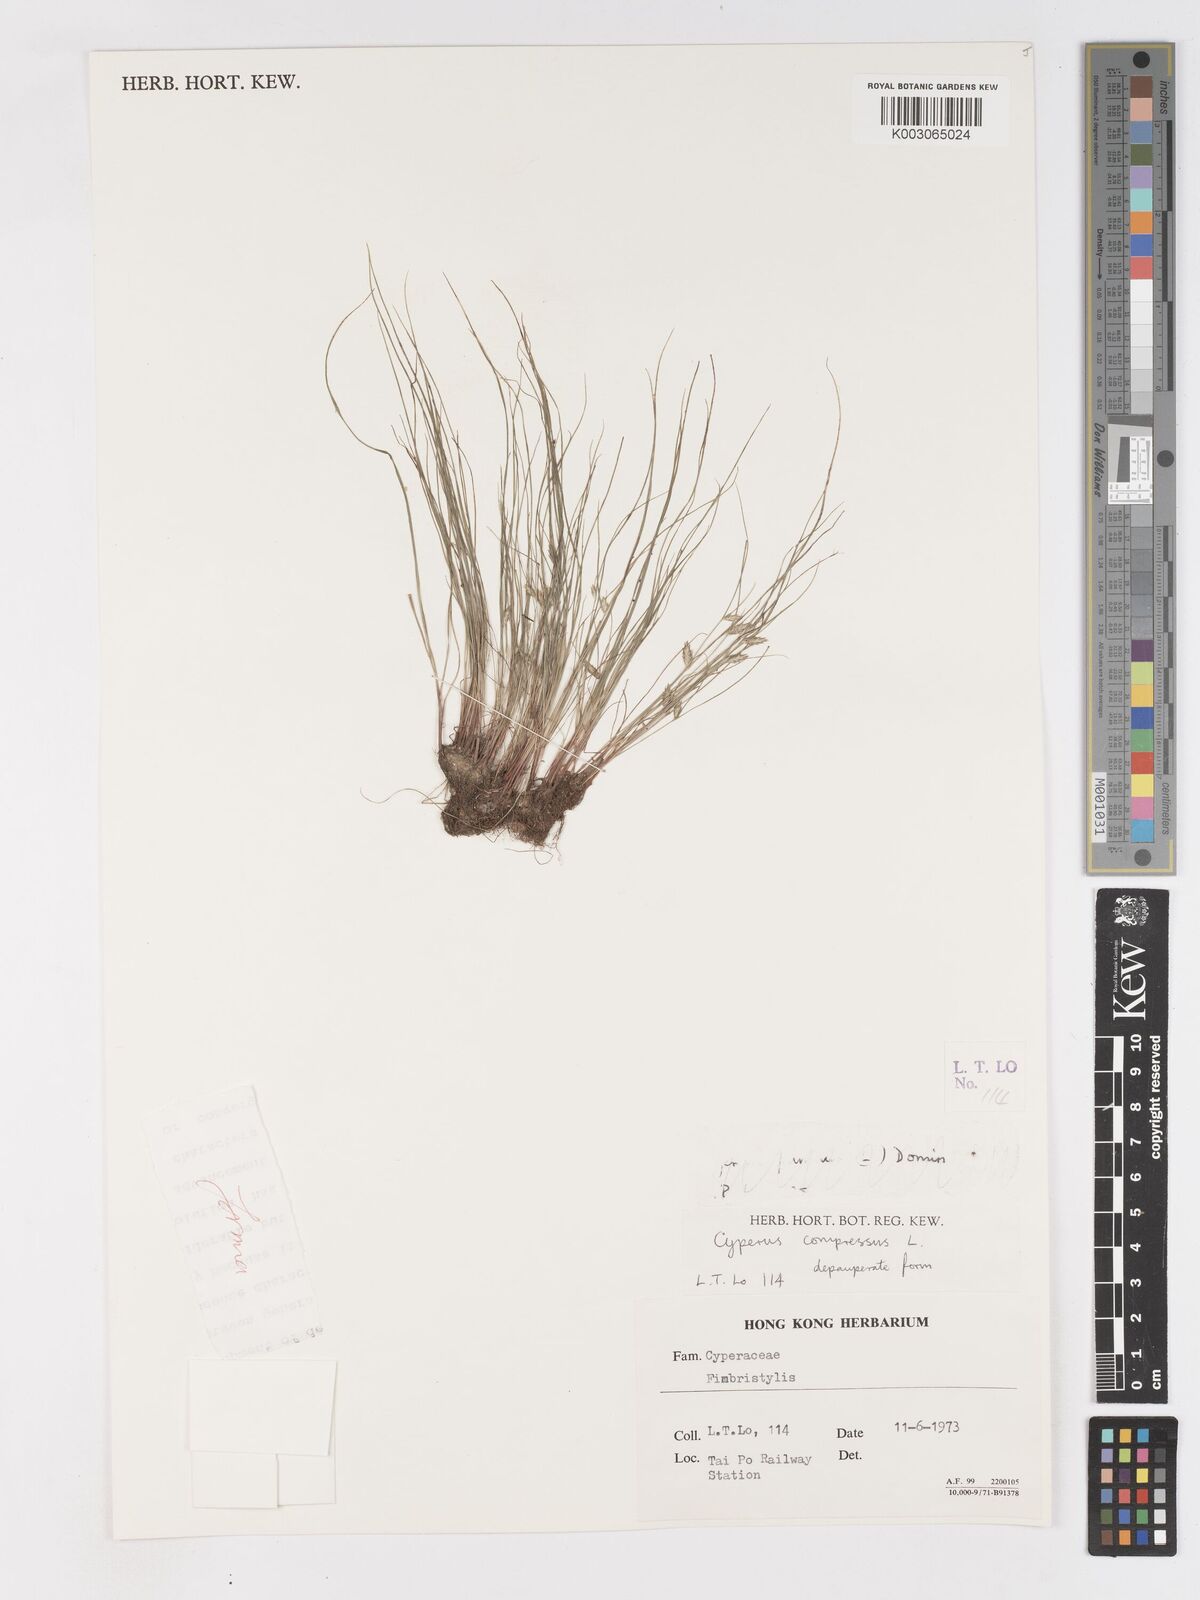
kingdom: Plantae
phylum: Tracheophyta
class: Liliopsida
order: Poales
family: Cyperaceae
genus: Cyperus
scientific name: Cyperus compressus
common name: Poorland flatsedge
